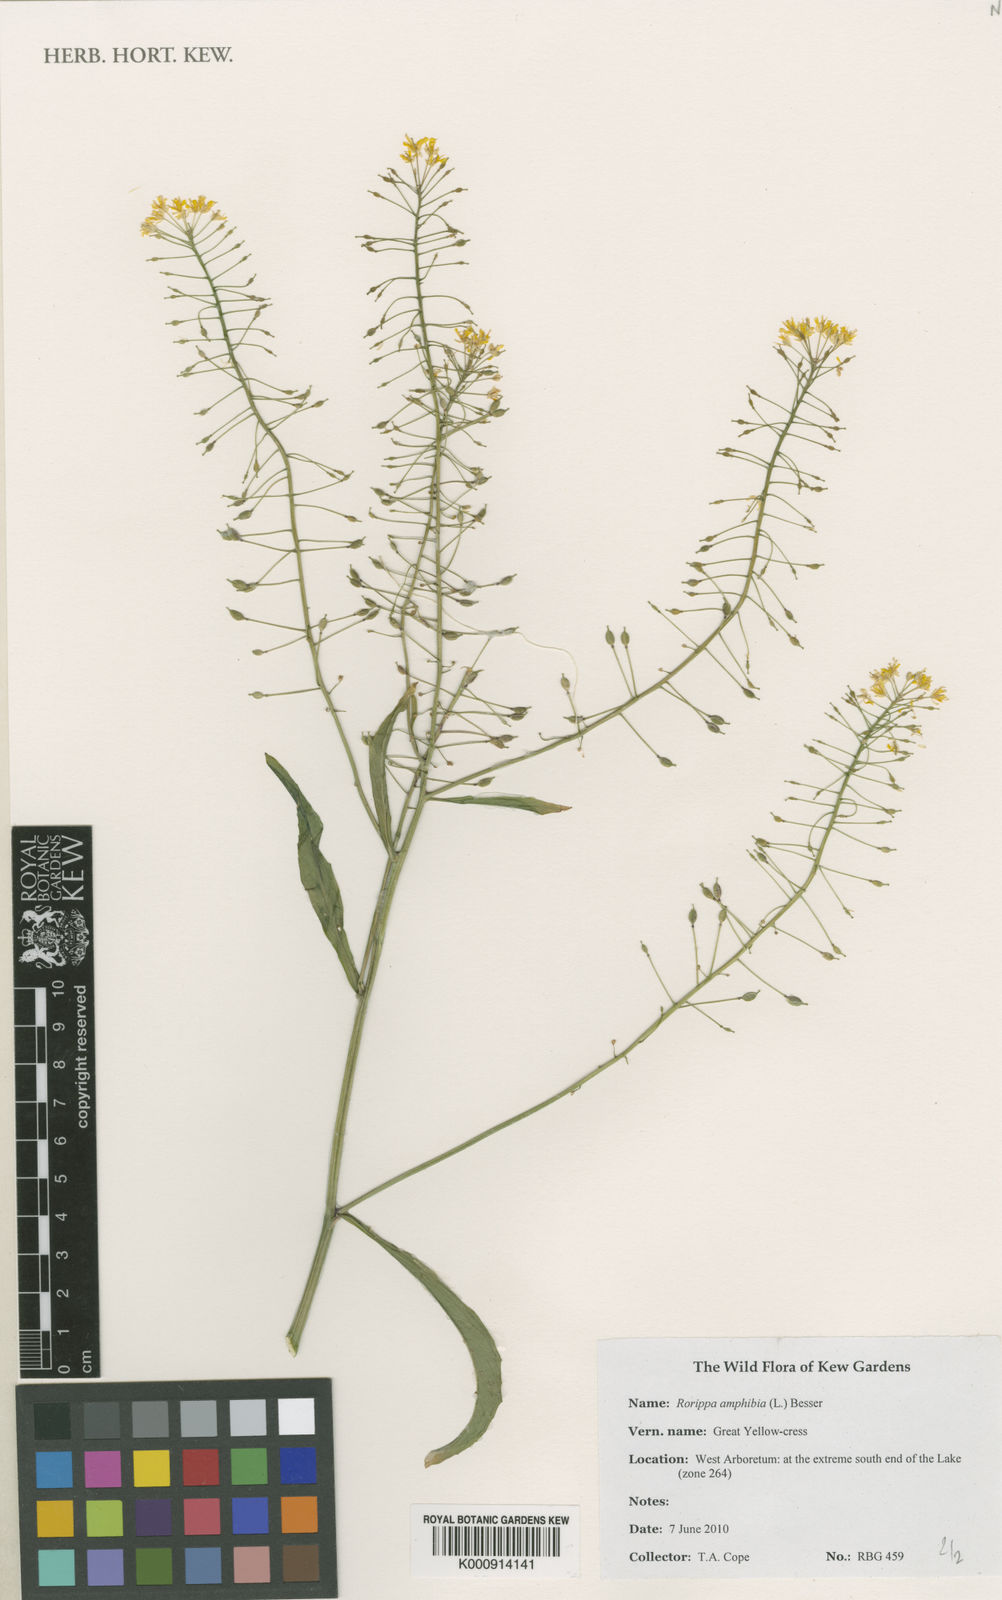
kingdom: Plantae
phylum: Tracheophyta
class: Magnoliopsida
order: Brassicales
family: Brassicaceae
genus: Rorippa
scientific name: Rorippa amphibia
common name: Great yellow-cress
